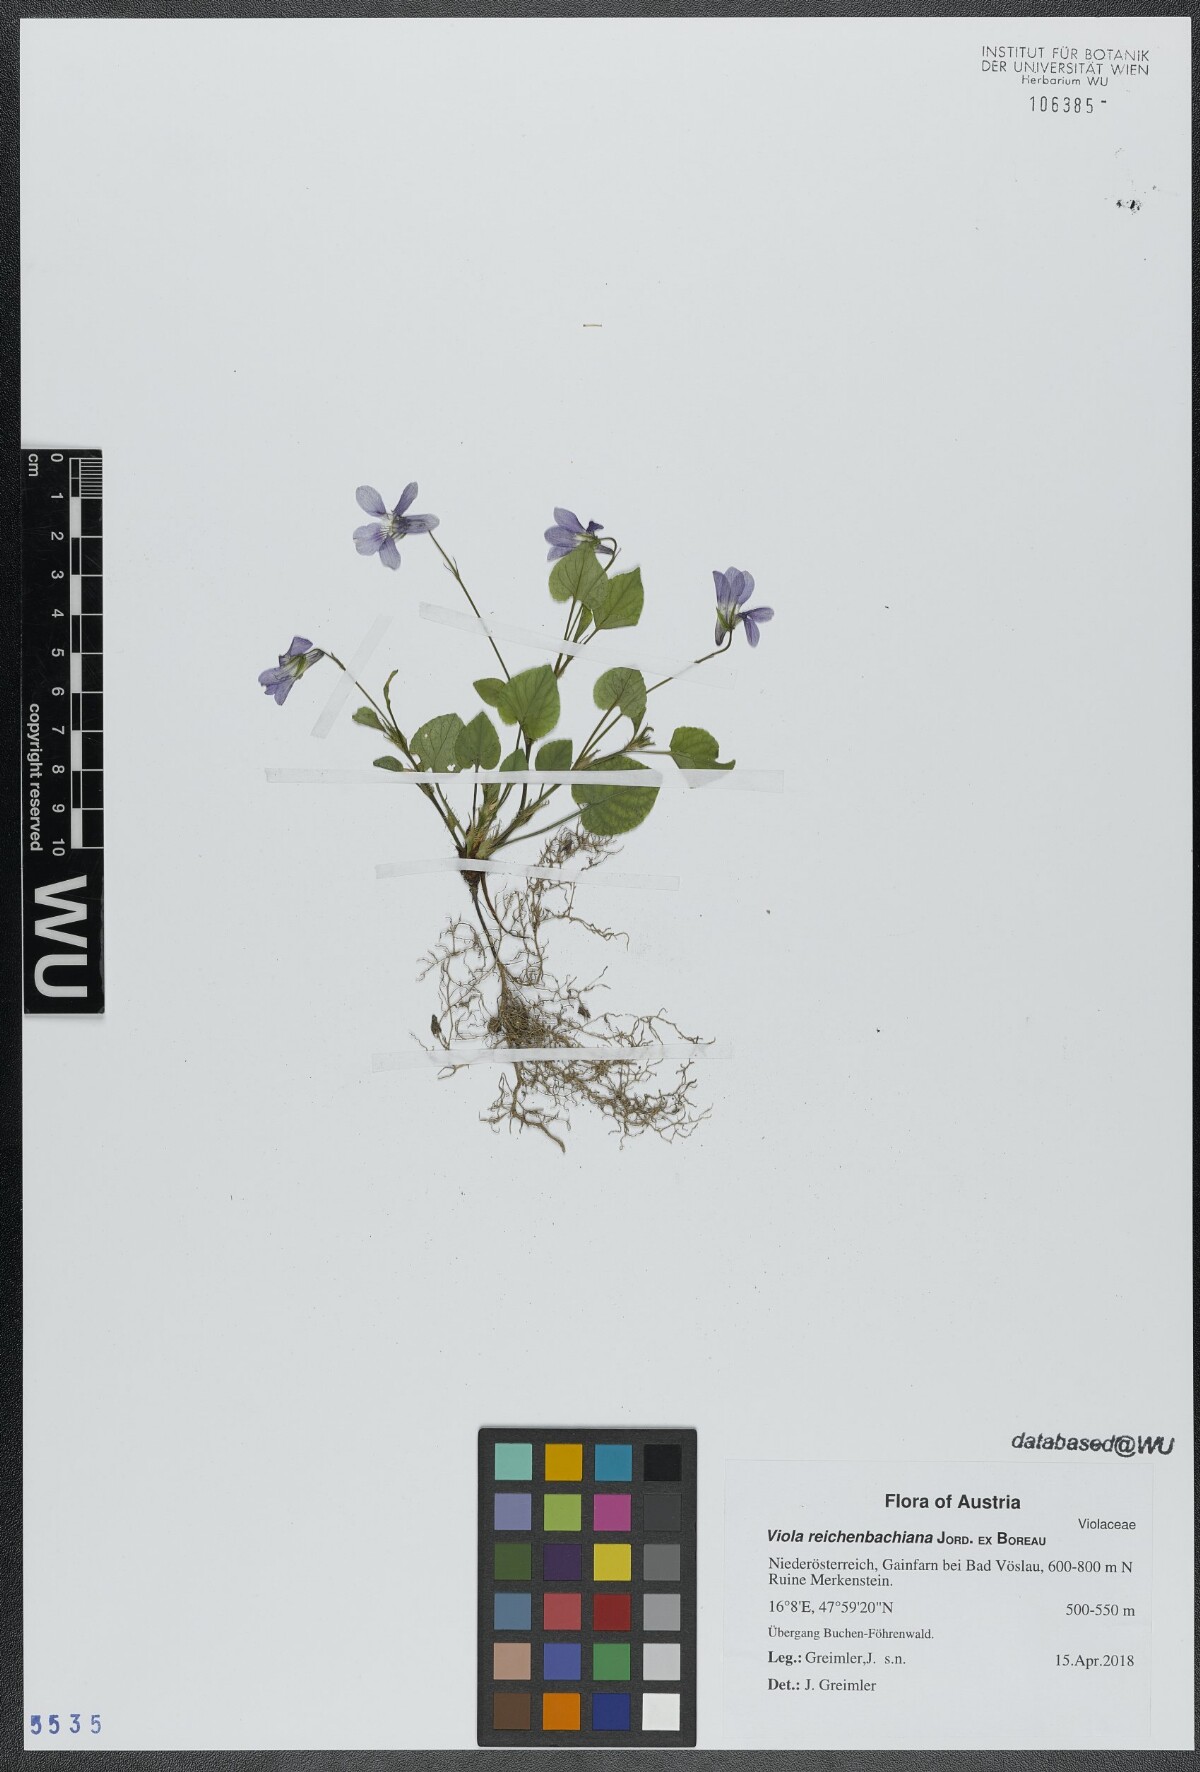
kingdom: Plantae
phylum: Tracheophyta
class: Magnoliopsida
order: Malpighiales
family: Violaceae
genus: Viola
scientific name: Viola reichenbachiana
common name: Early dog-violet
